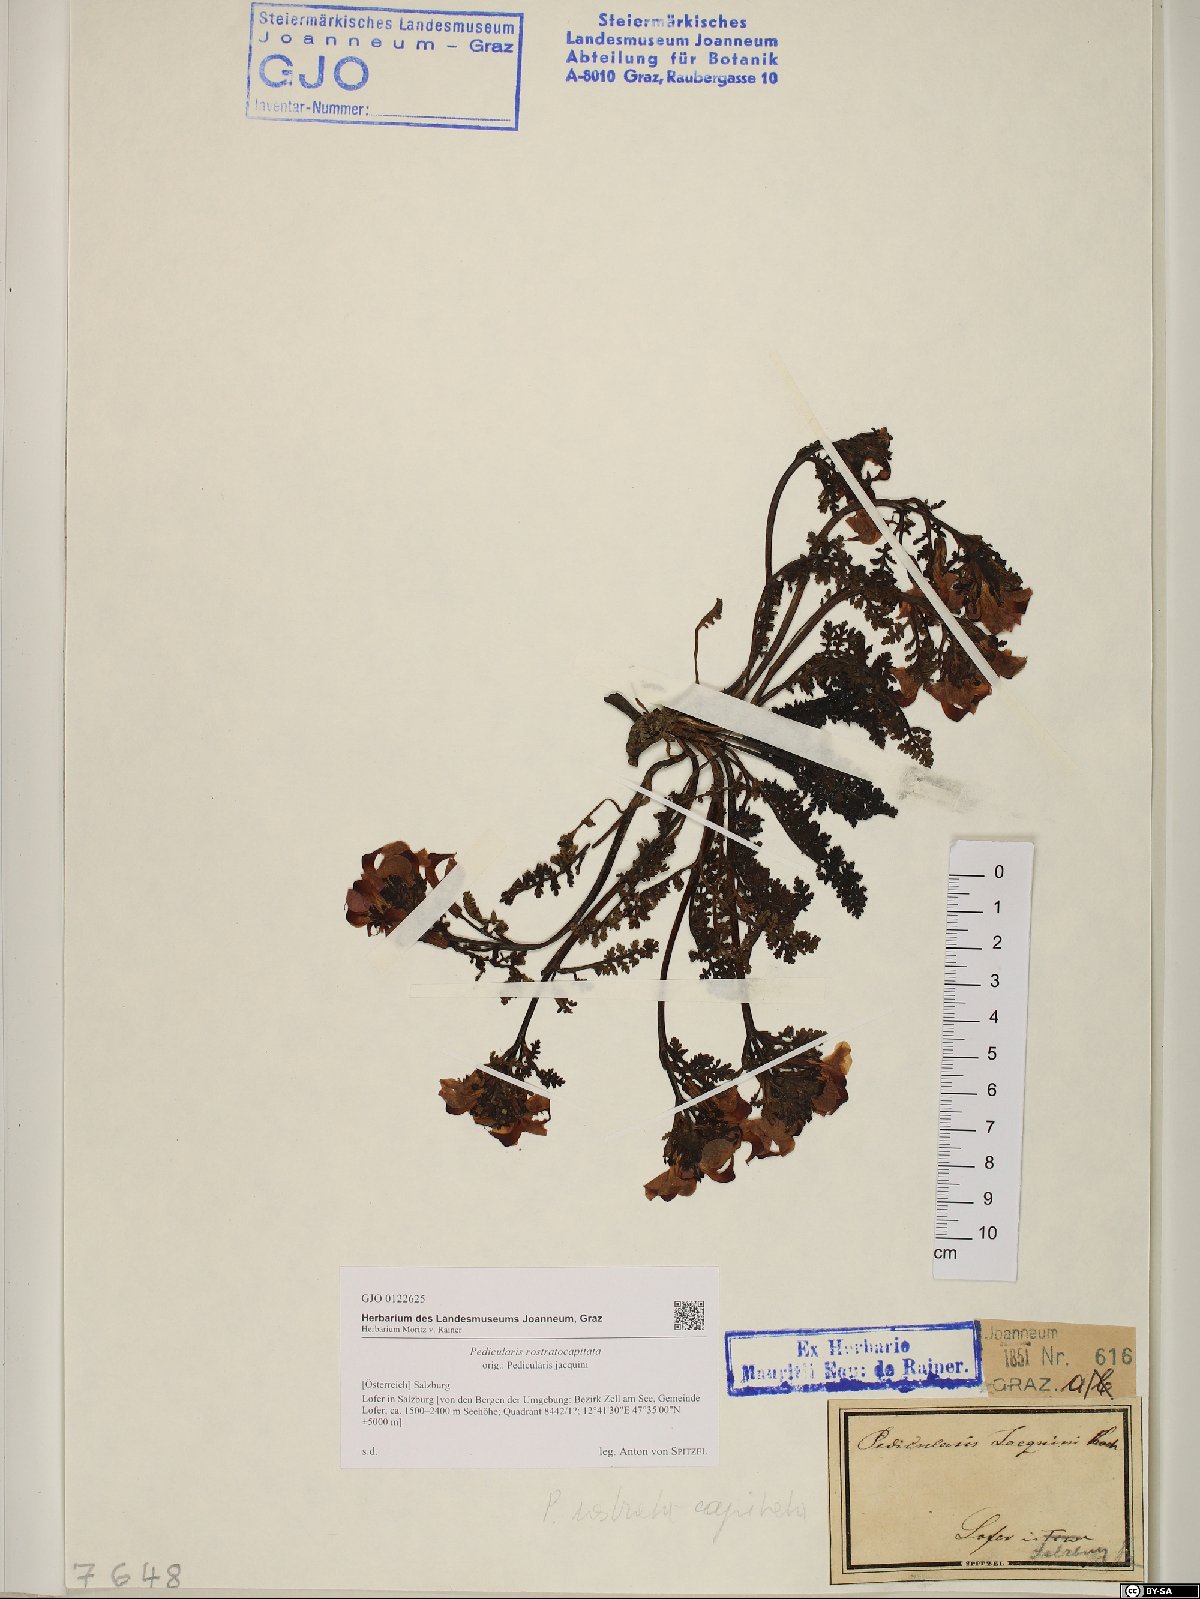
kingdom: Plantae
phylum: Tracheophyta
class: Magnoliopsida
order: Lamiales
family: Orobanchaceae
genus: Pedicularis
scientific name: Pedicularis rostratocapitata
